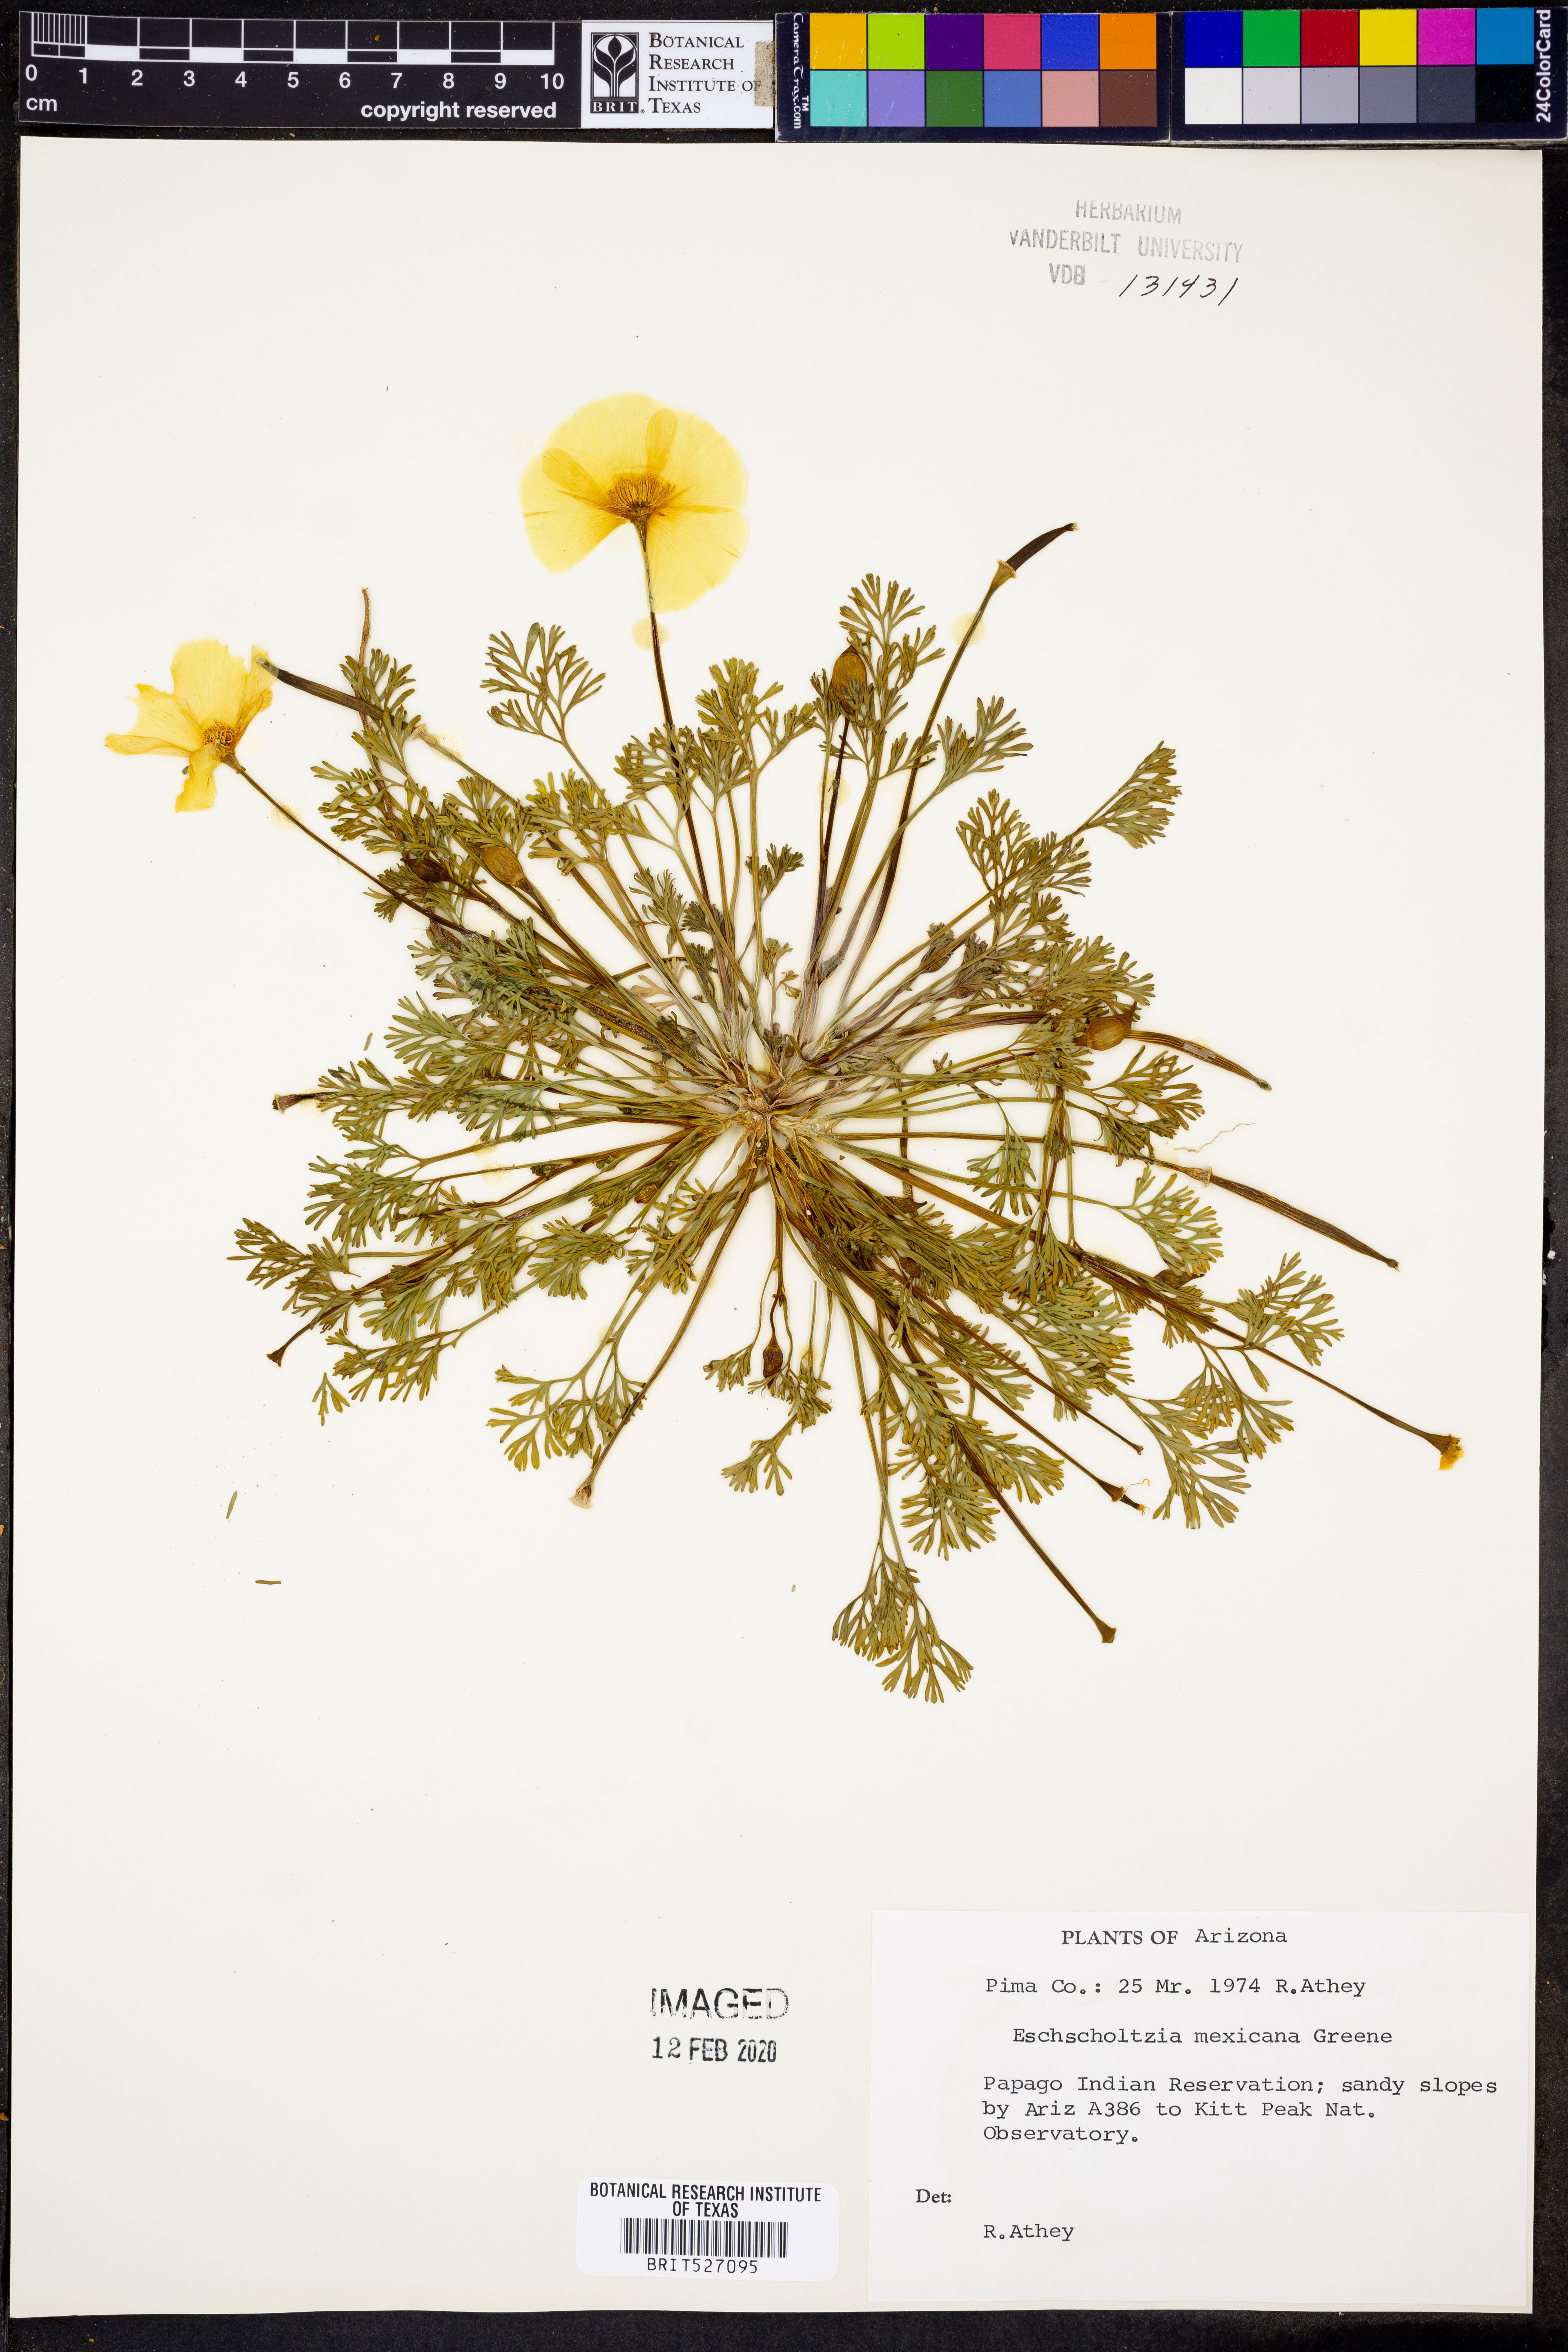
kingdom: Plantae
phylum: Tracheophyta
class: Magnoliopsida
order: Ranunculales
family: Papaveraceae
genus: Eschscholzia
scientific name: Eschscholzia californica
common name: California poppy
